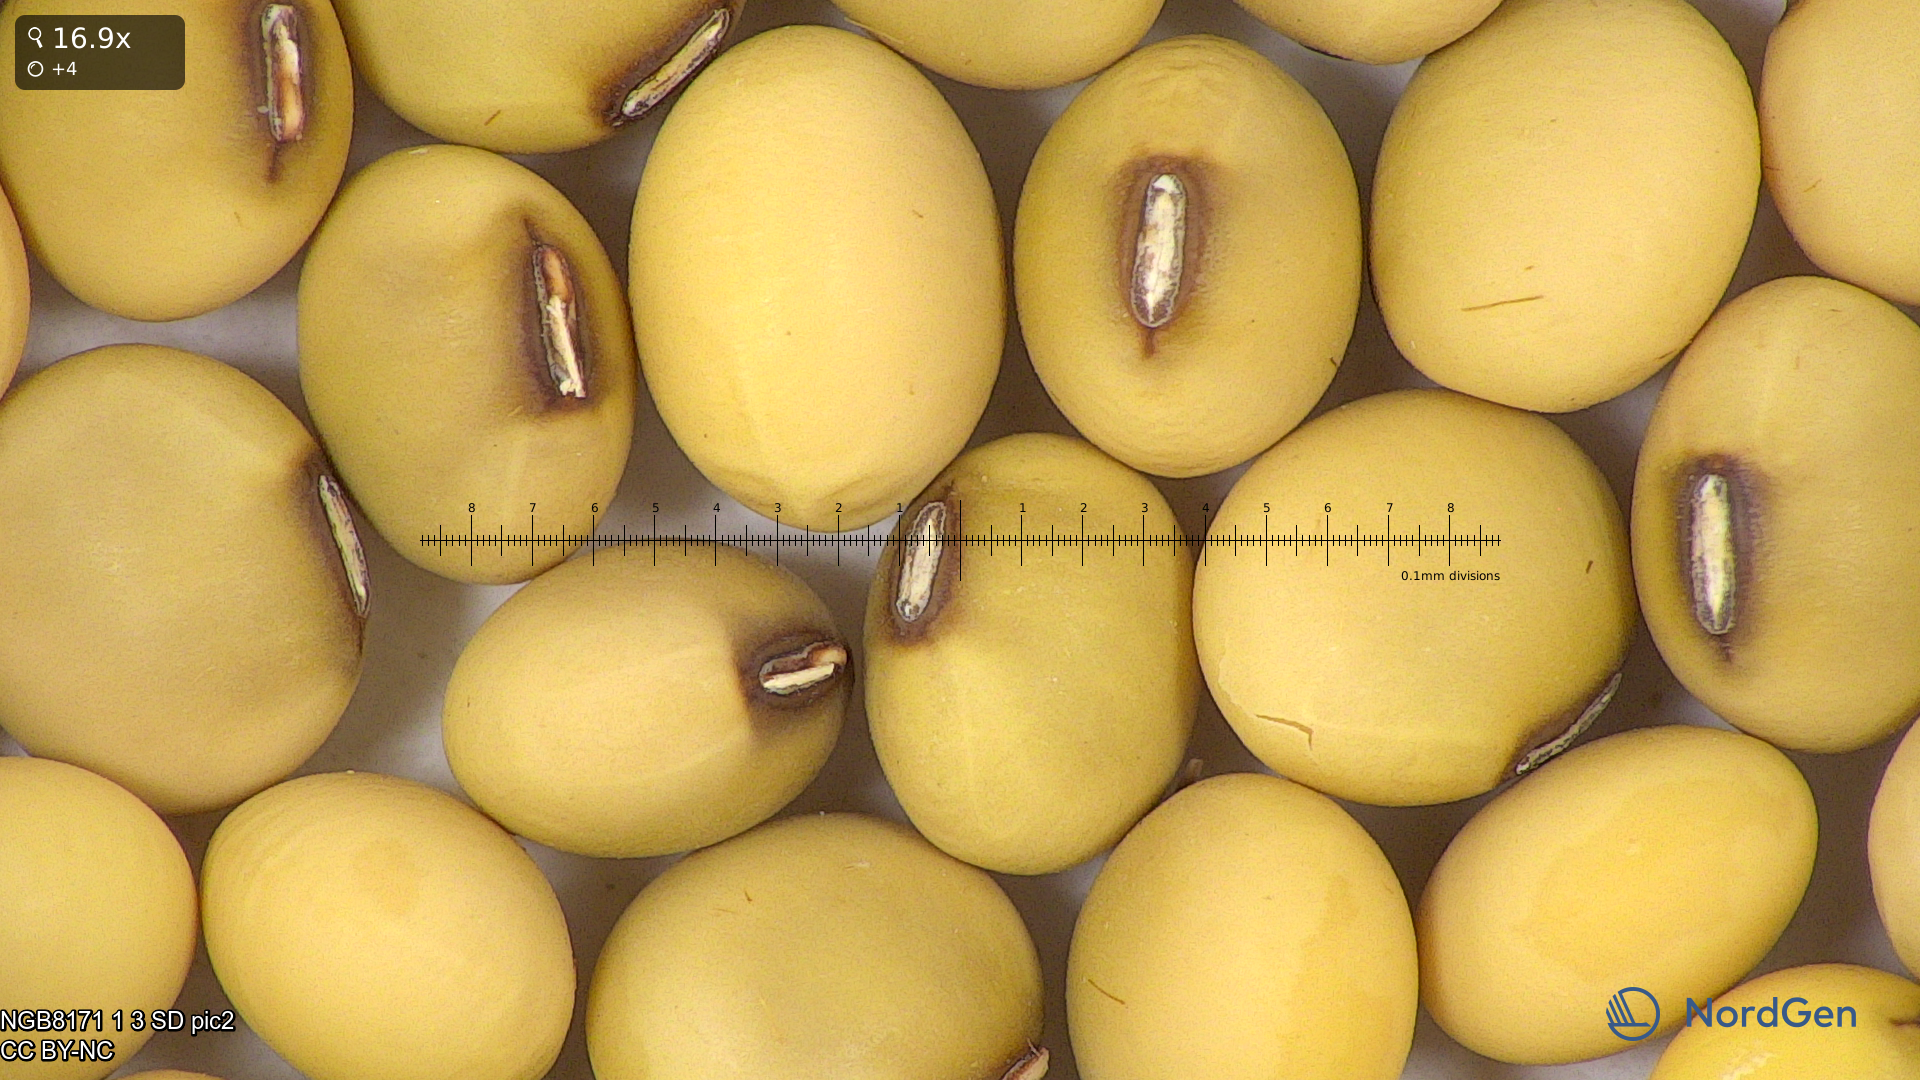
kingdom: Plantae
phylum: Tracheophyta
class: Magnoliopsida
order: Fabales
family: Fabaceae
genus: Glycine
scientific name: Glycine max
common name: Soya-bean
